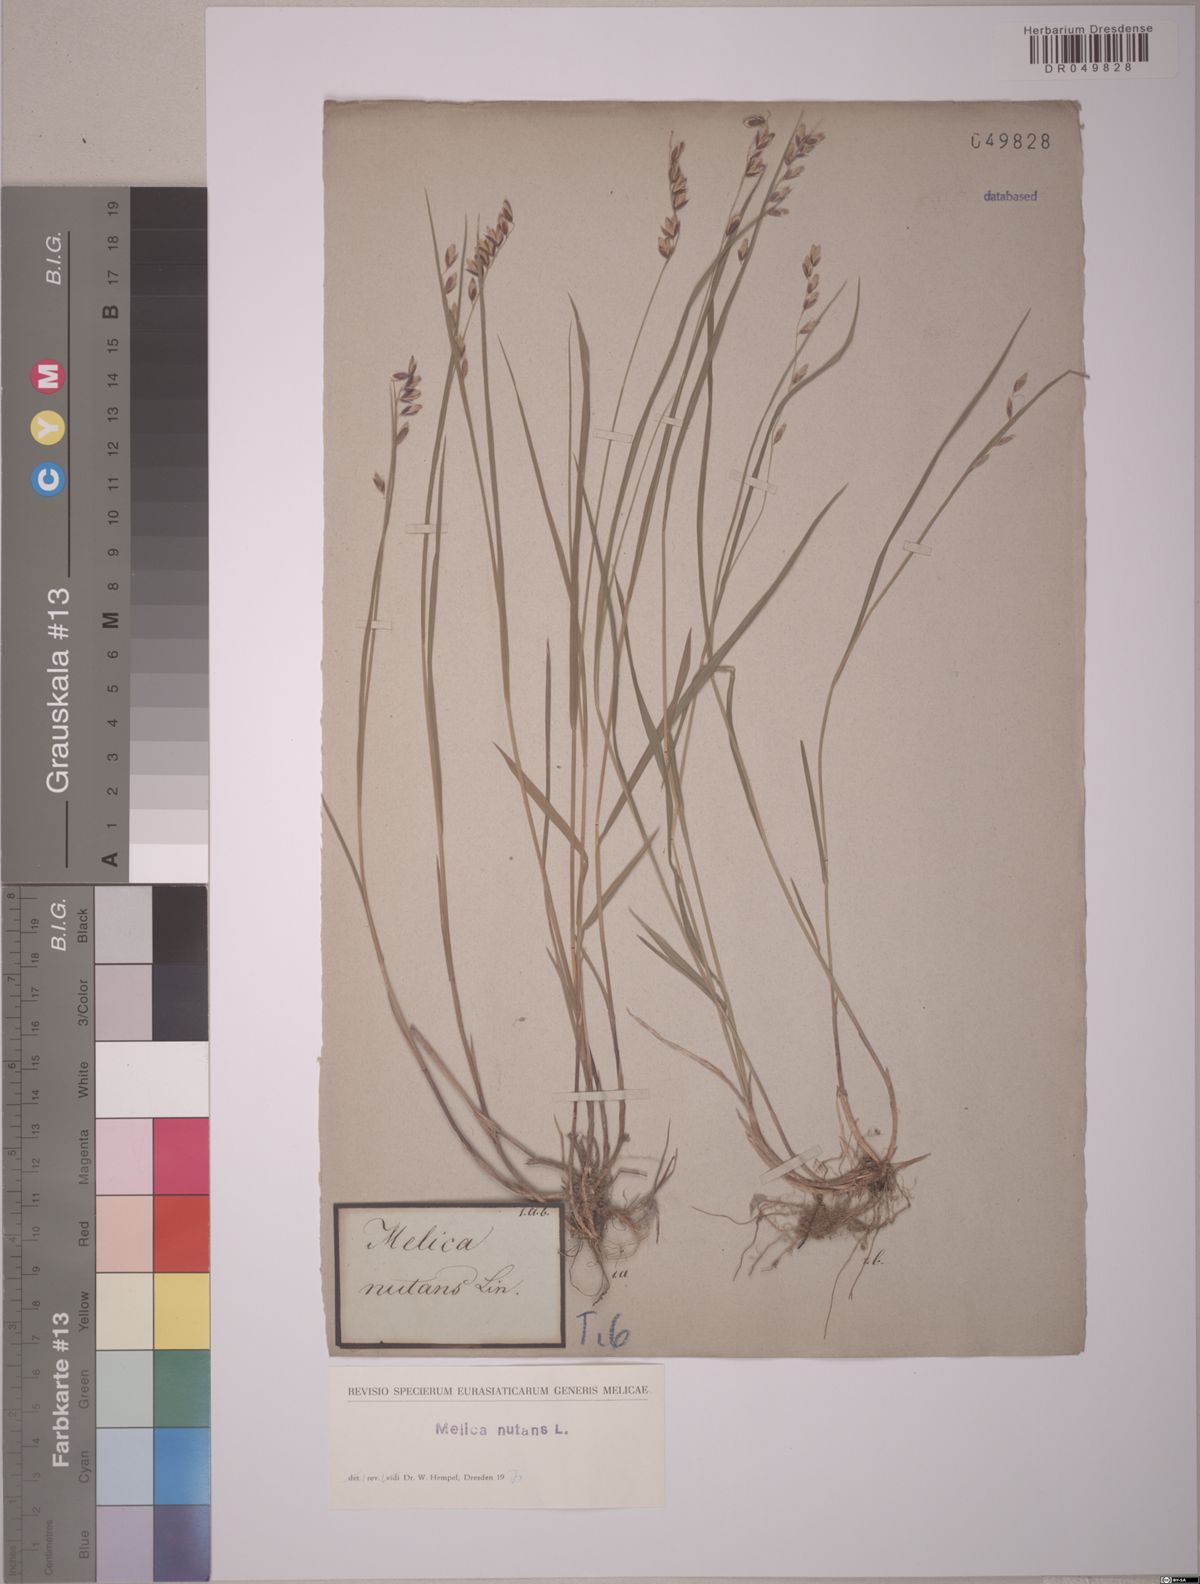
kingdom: Plantae
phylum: Tracheophyta
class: Liliopsida
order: Poales
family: Poaceae
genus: Melica
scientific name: Melica nutans
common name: Mountain melick
